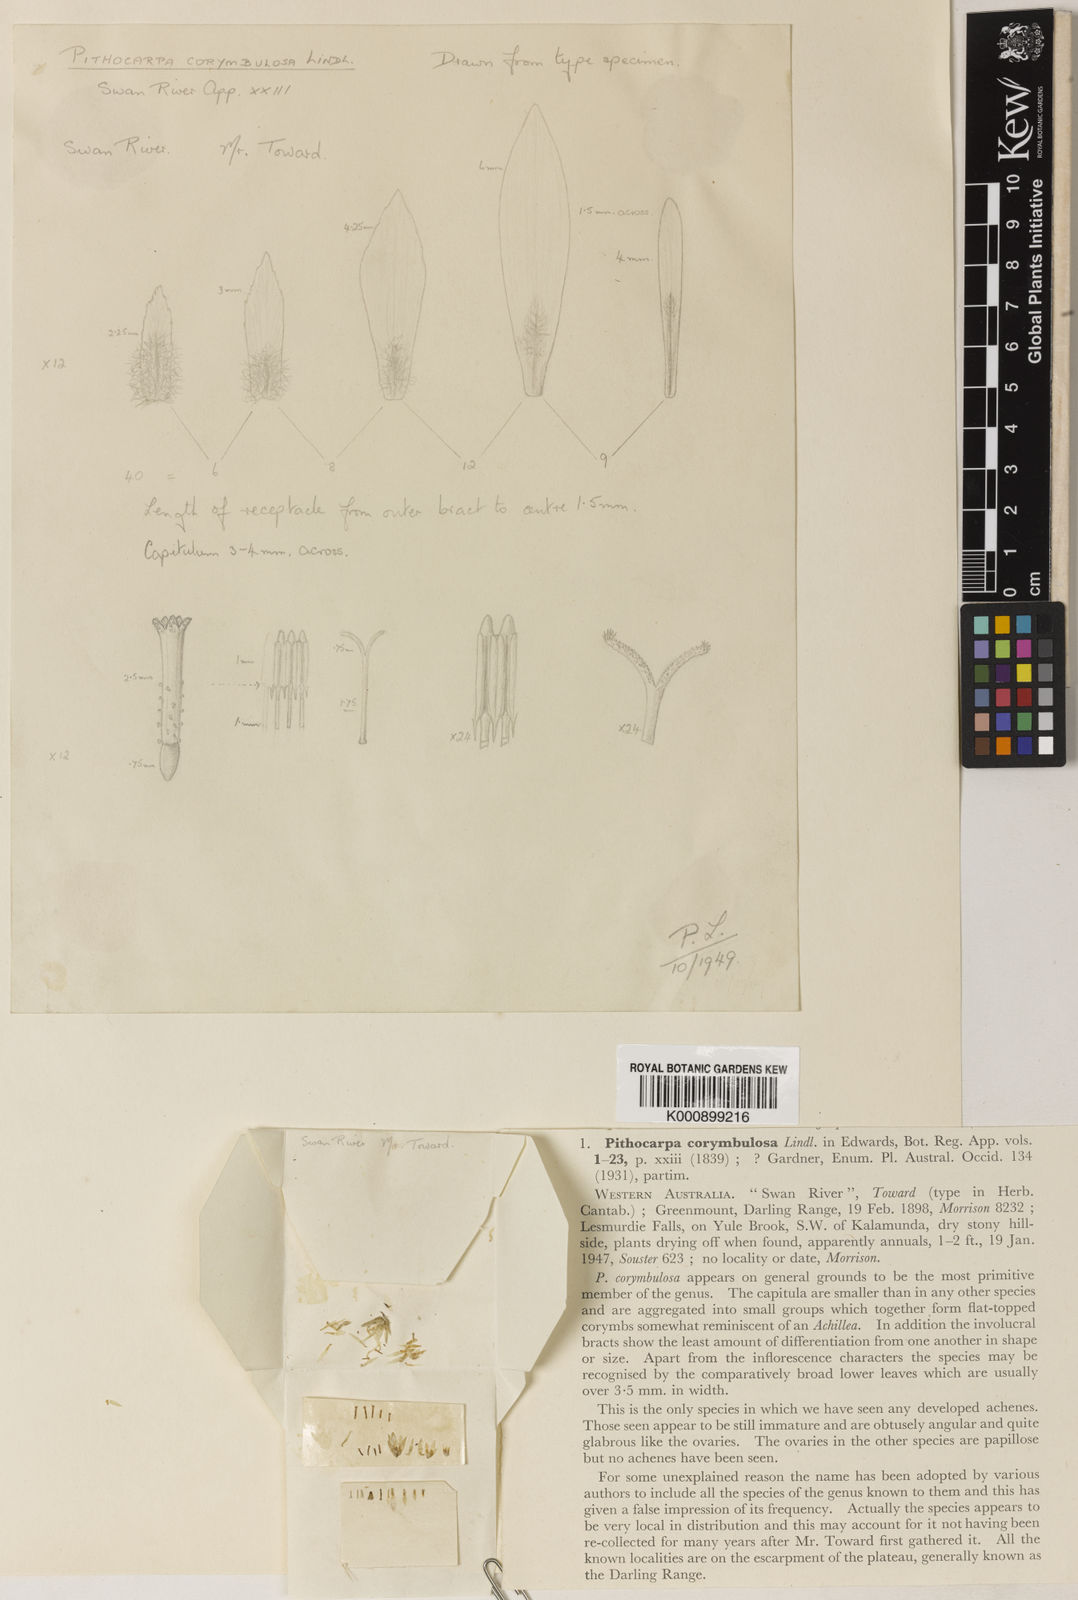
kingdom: Plantae
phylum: Tracheophyta
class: Magnoliopsida
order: Asterales
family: Asteraceae
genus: Pithocarpa
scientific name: Pithocarpa corymbulosa
